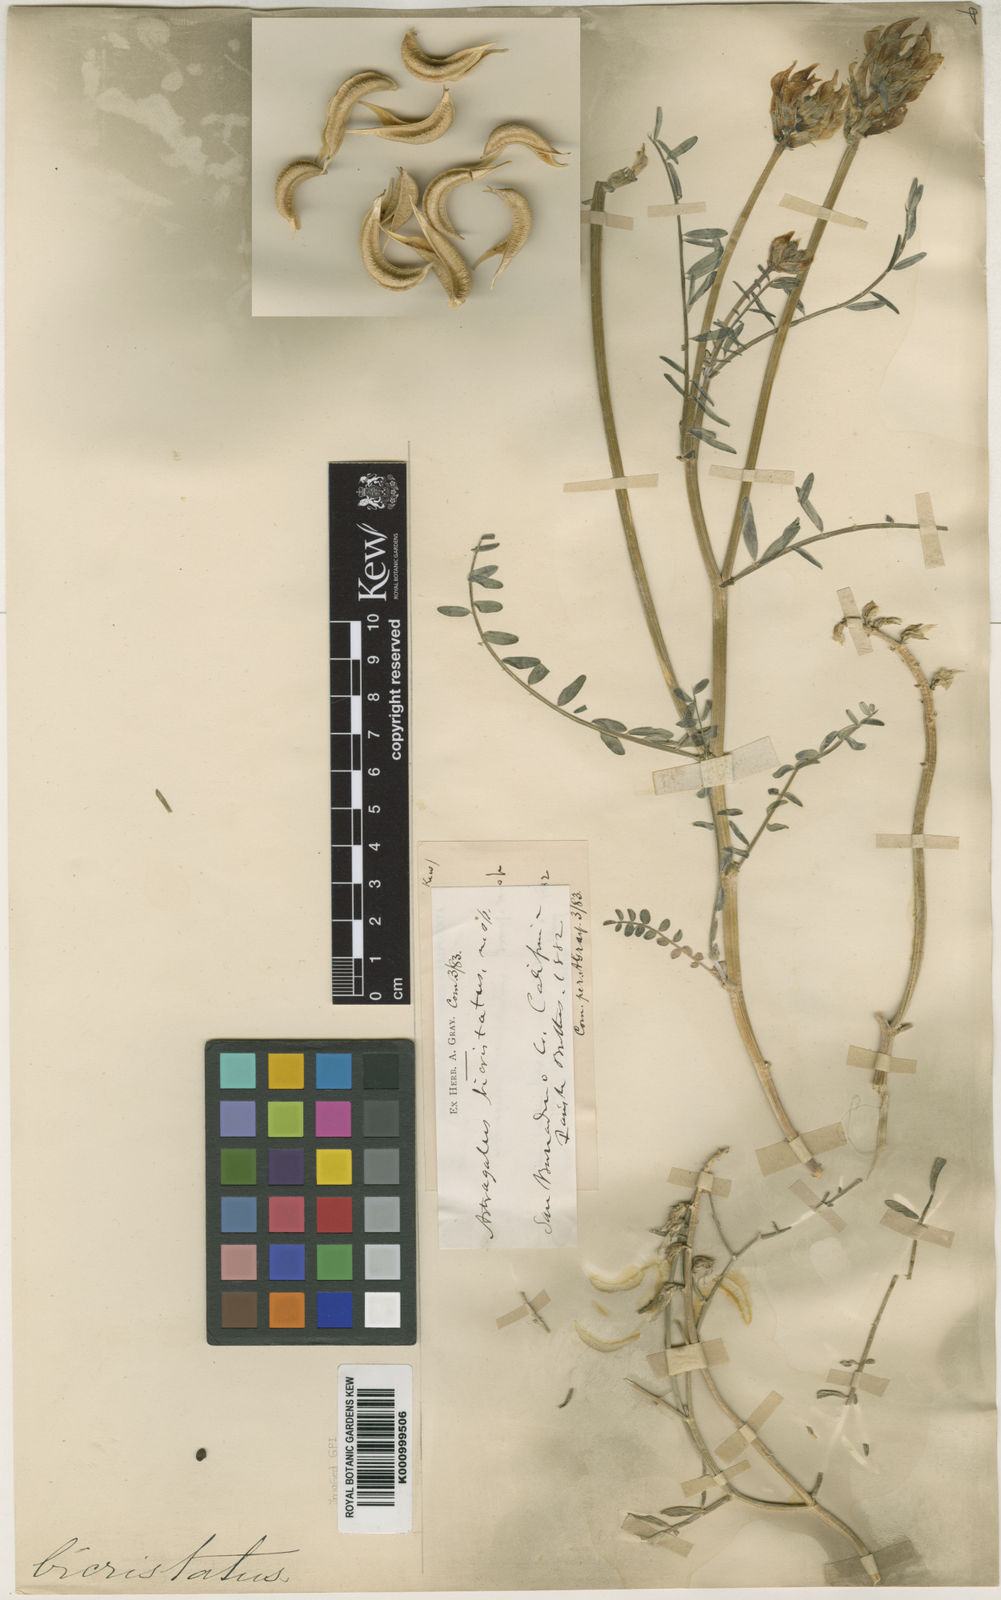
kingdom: Plantae
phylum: Tracheophyta
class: Magnoliopsida
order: Fabales
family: Fabaceae
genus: Astragalus
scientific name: Astragalus bicristatus
